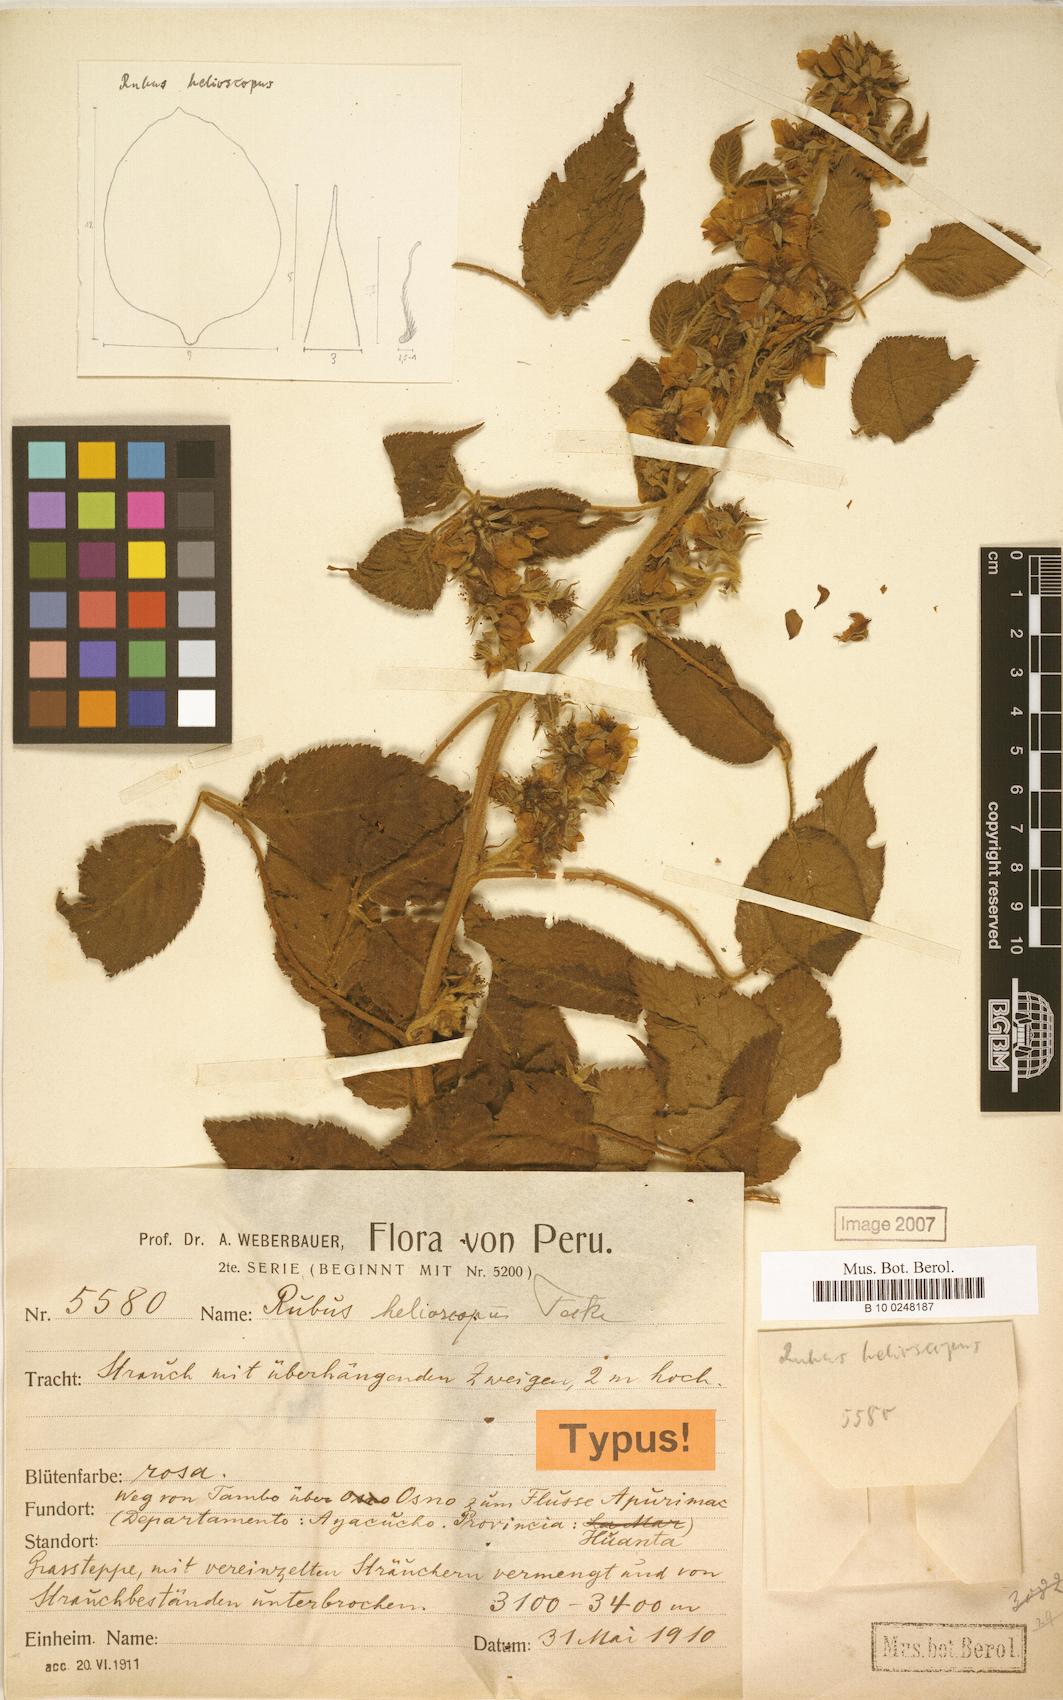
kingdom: Plantae
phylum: Tracheophyta
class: Magnoliopsida
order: Rosales
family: Rosaceae
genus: Rubus
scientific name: Rubus floribundus
